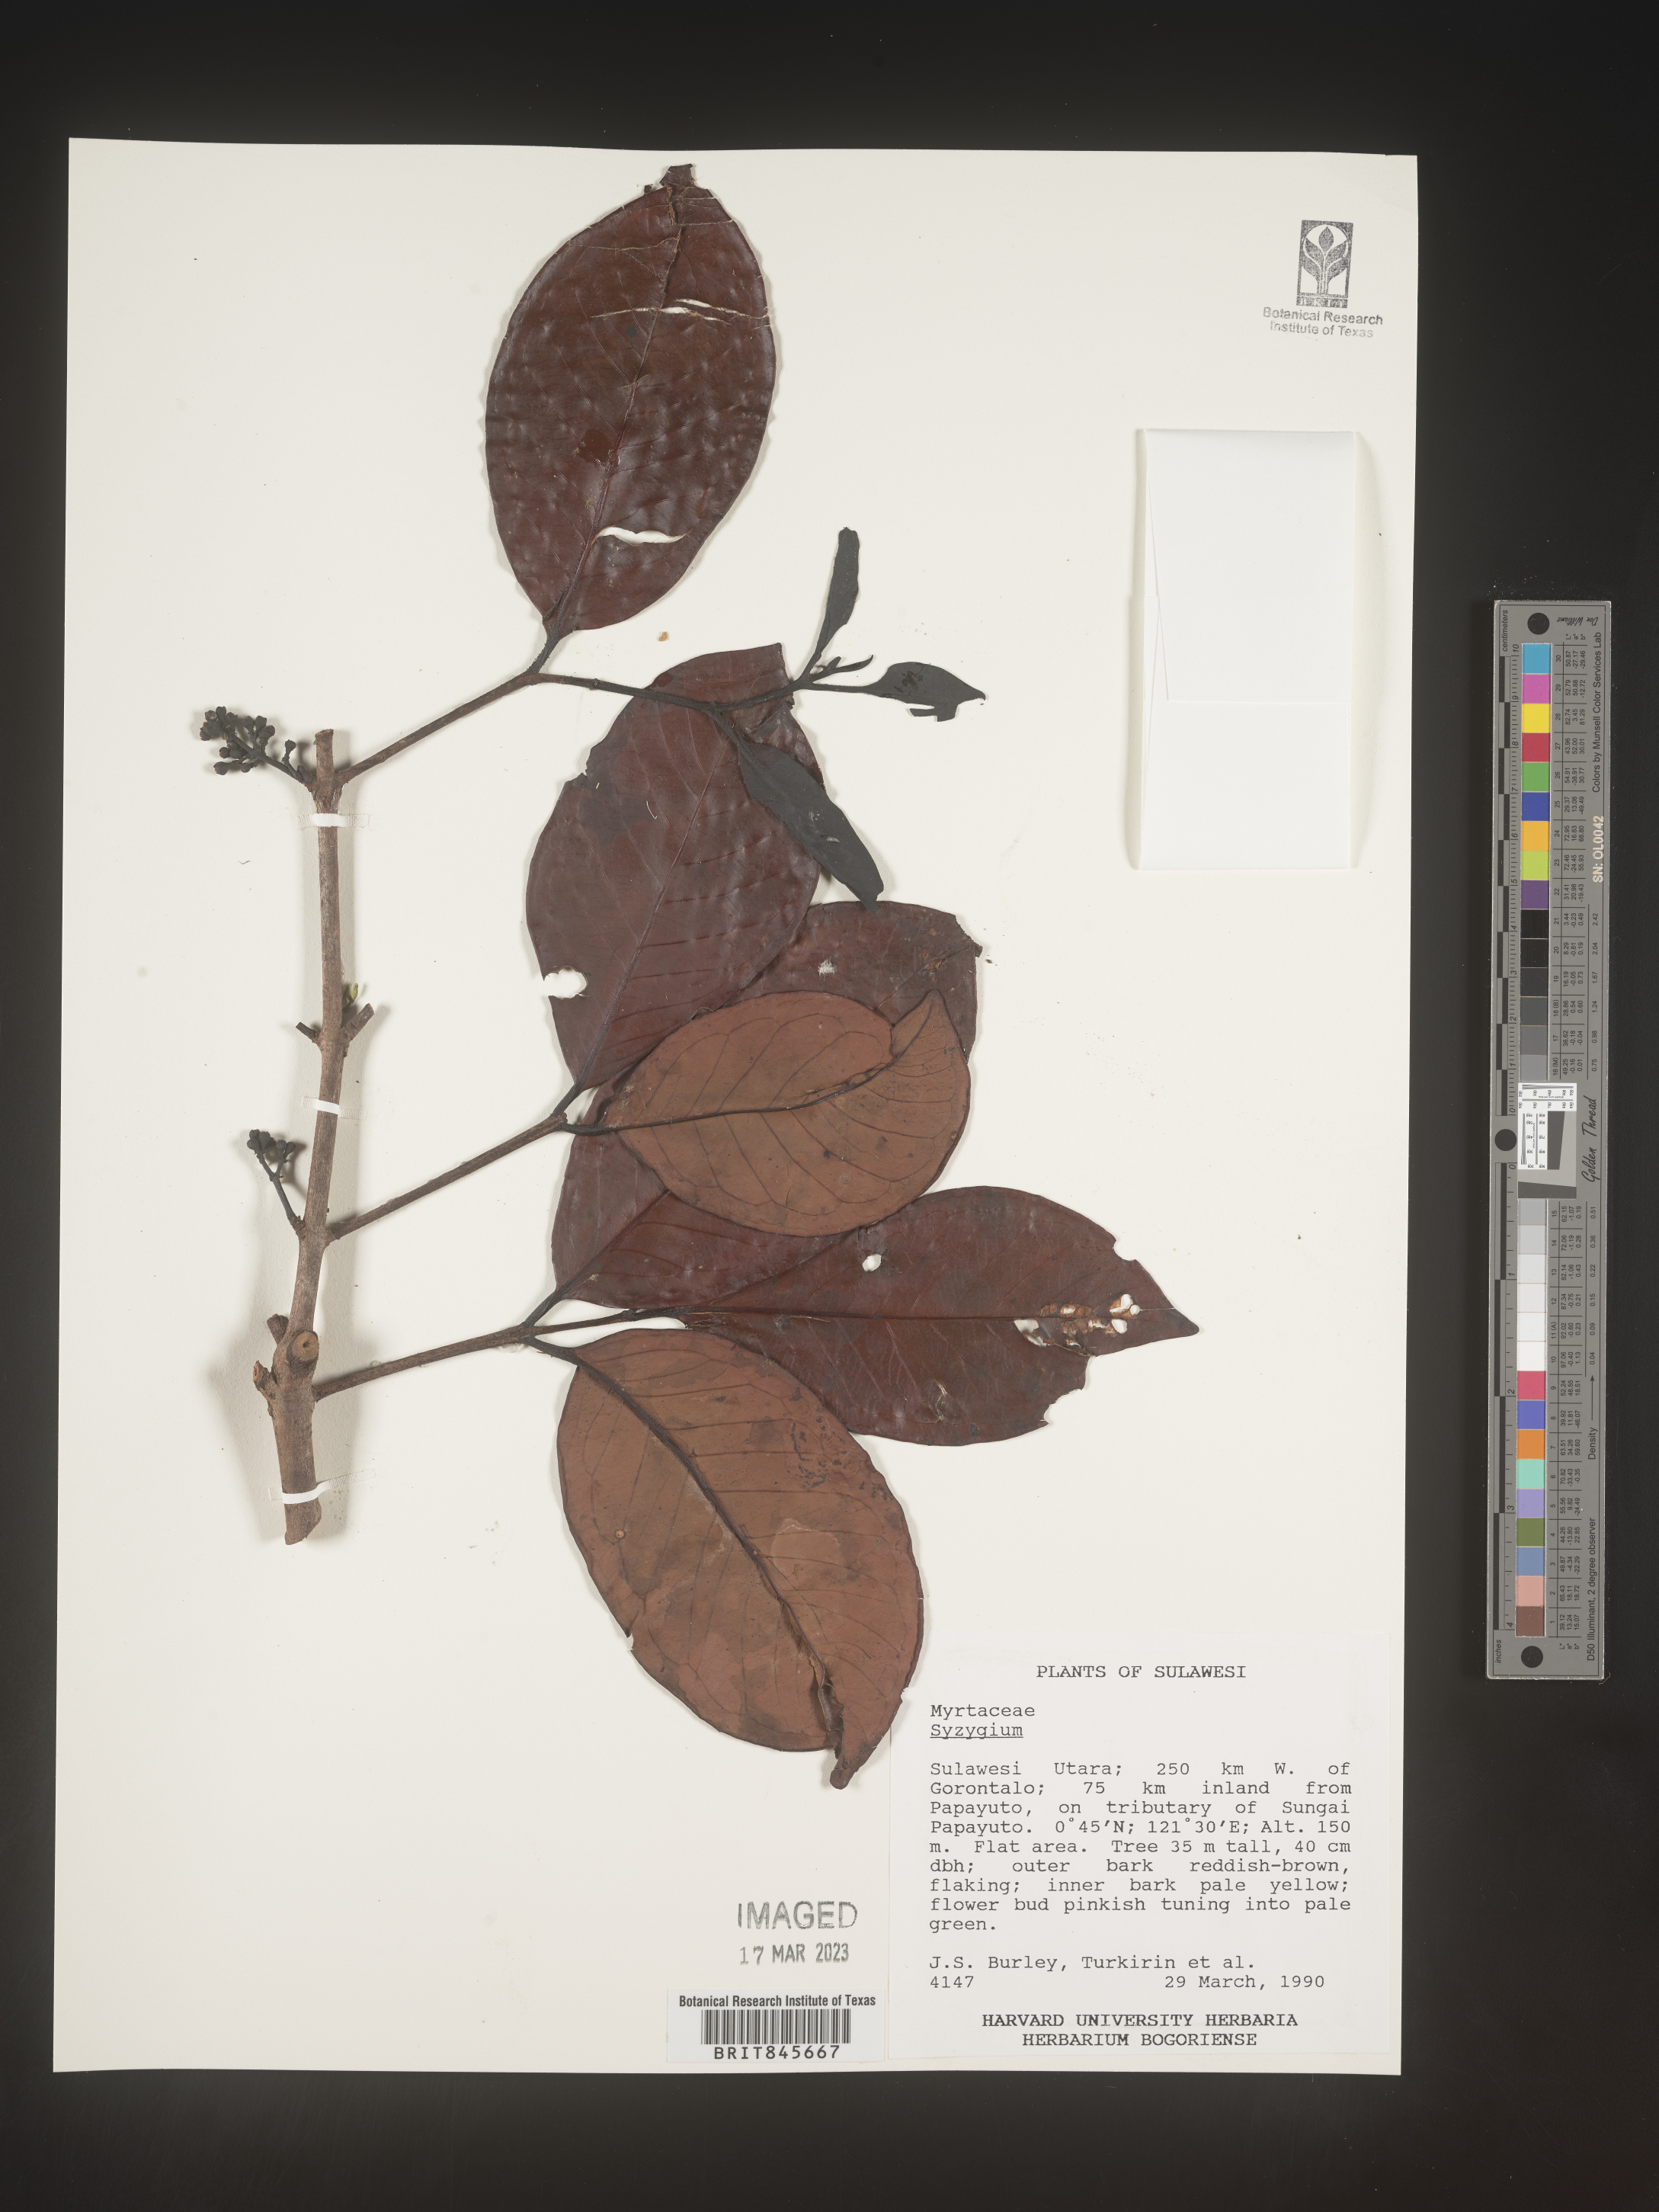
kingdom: Plantae
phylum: Tracheophyta
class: Magnoliopsida
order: Myrtales
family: Myrtaceae
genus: Syzygium
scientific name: Syzygium
